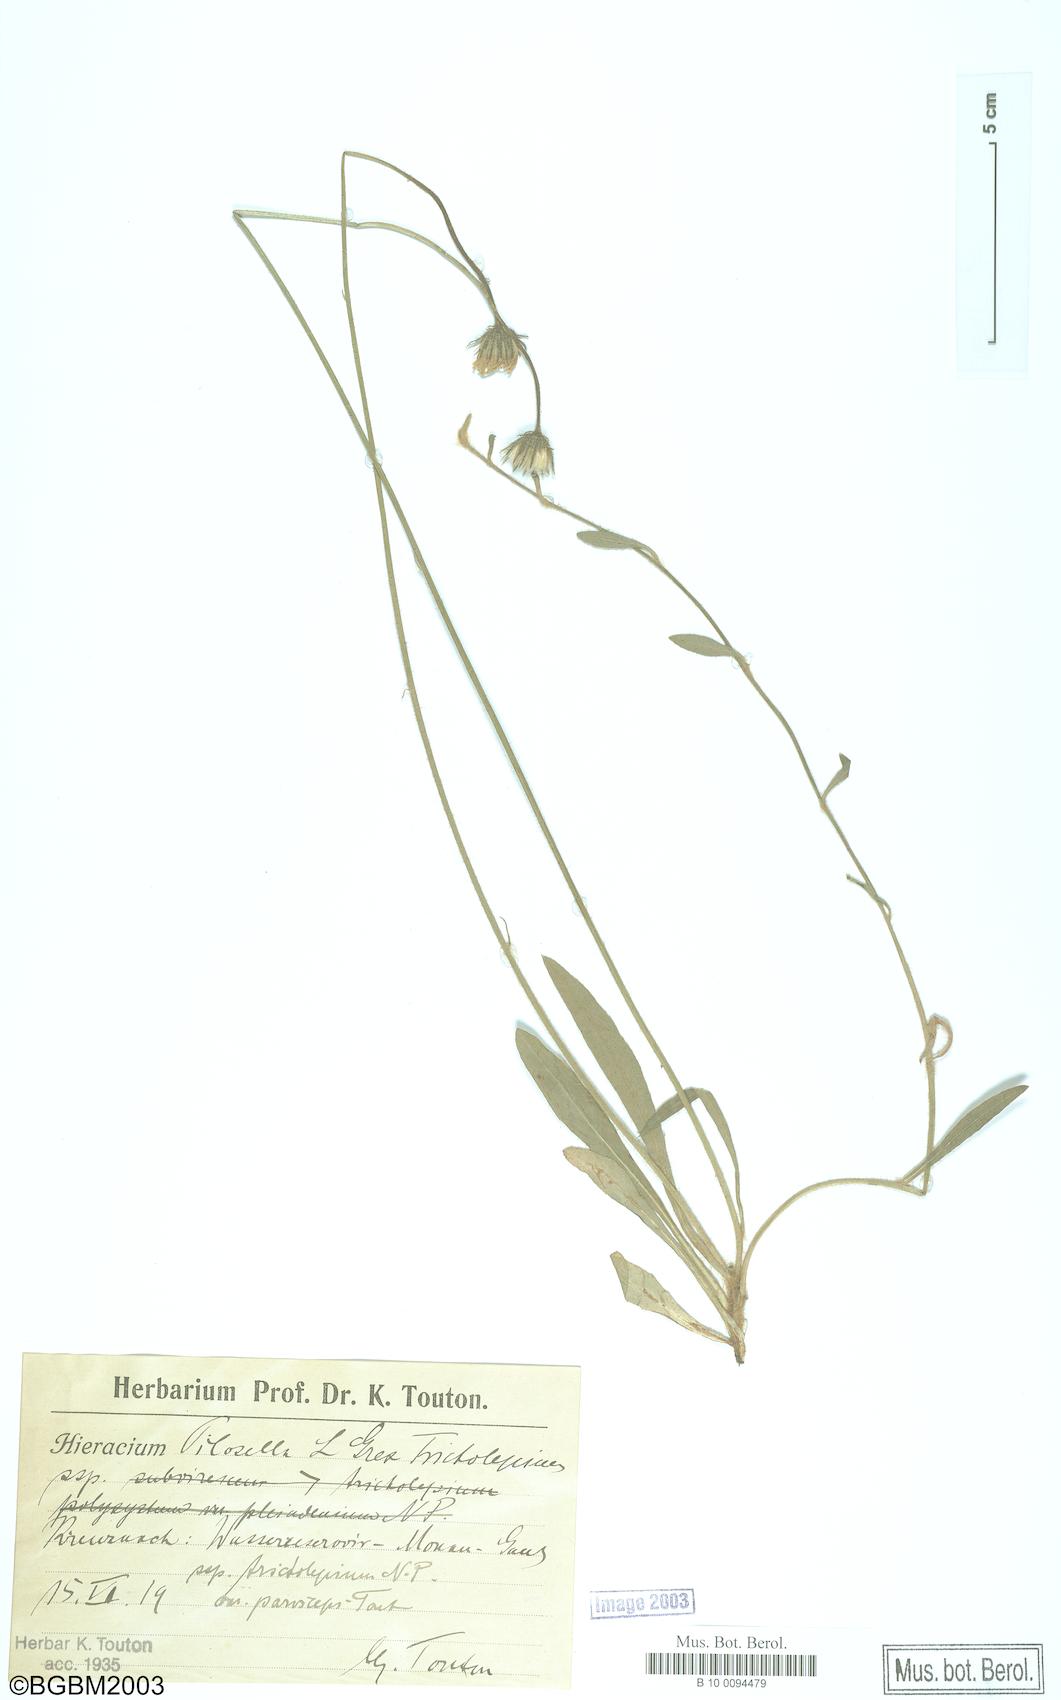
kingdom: Plantae
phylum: Tracheophyta
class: Magnoliopsida
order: Asterales
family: Asteraceae
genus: Pilosella
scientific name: Pilosella officinarum
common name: Mouse-ear hawkweed
